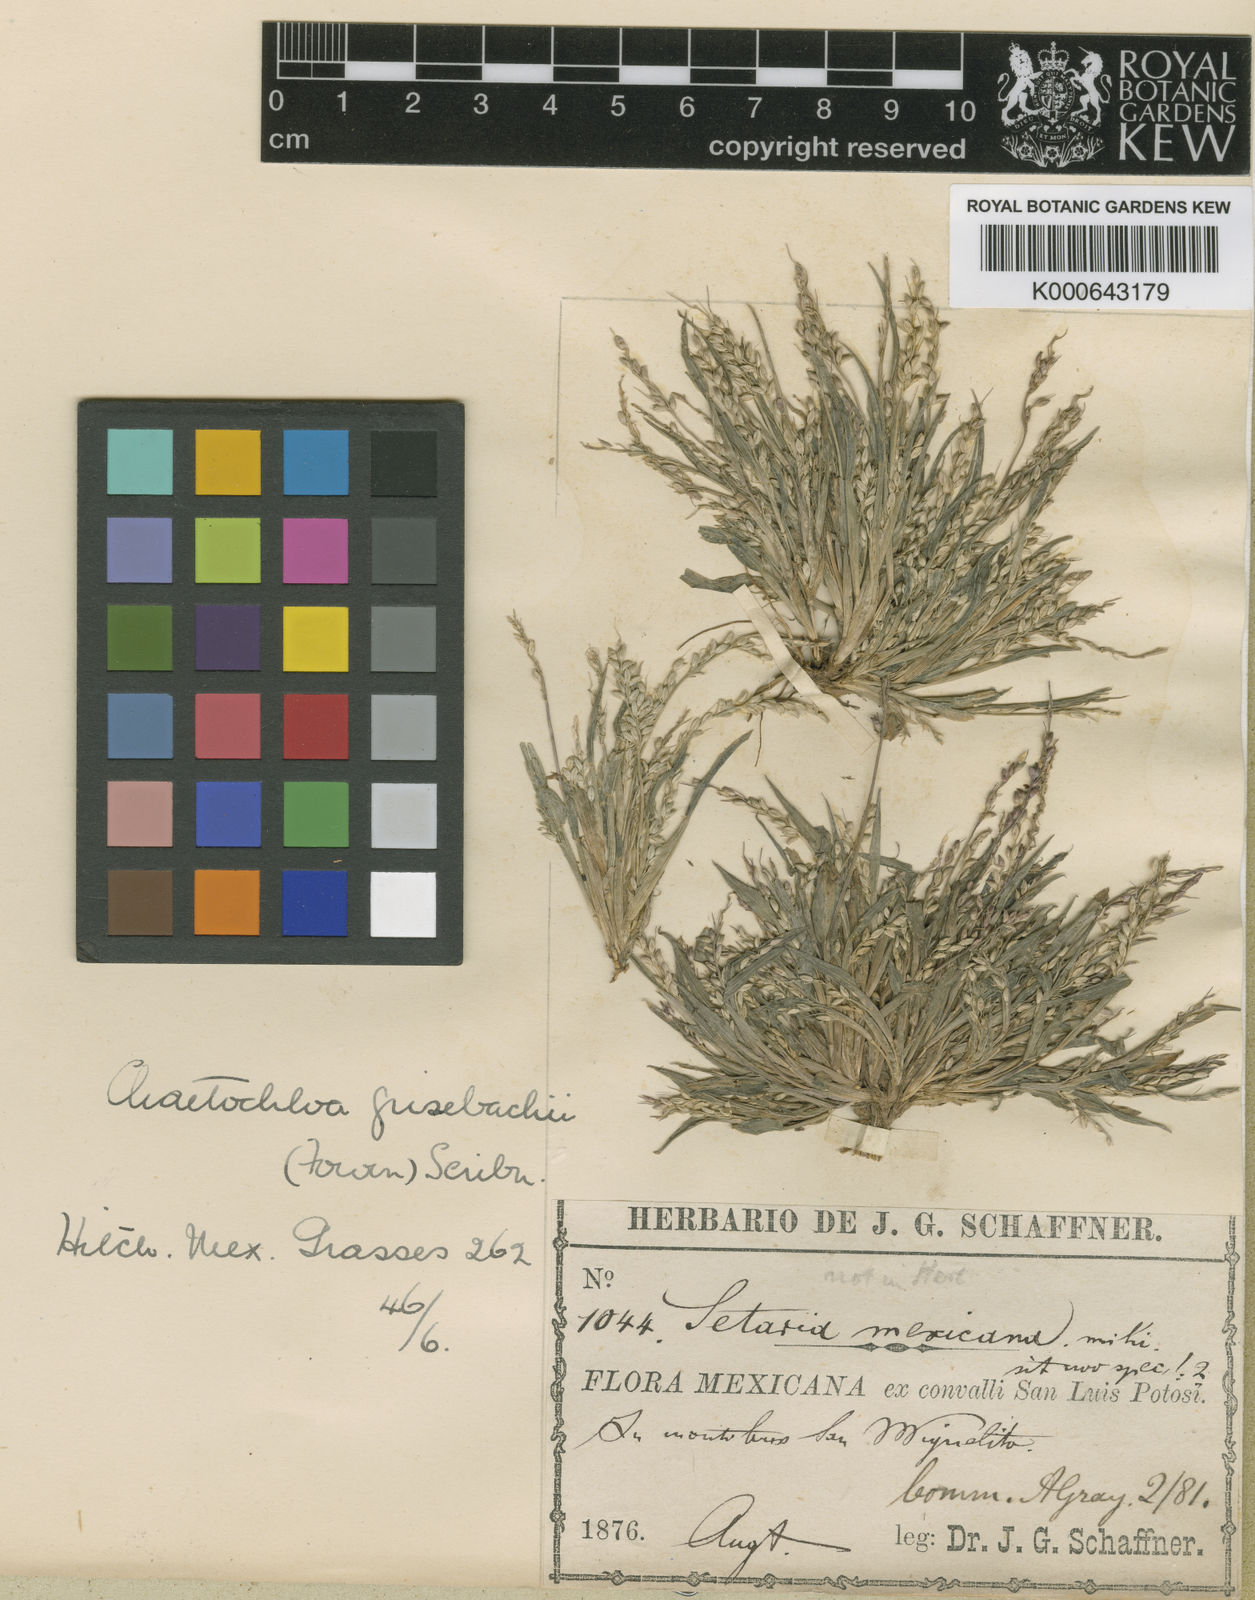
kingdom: Plantae
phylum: Tracheophyta
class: Liliopsida
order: Poales
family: Poaceae
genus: Setaria
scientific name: Setaria grisebachii
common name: Grisebach's bristle grass
